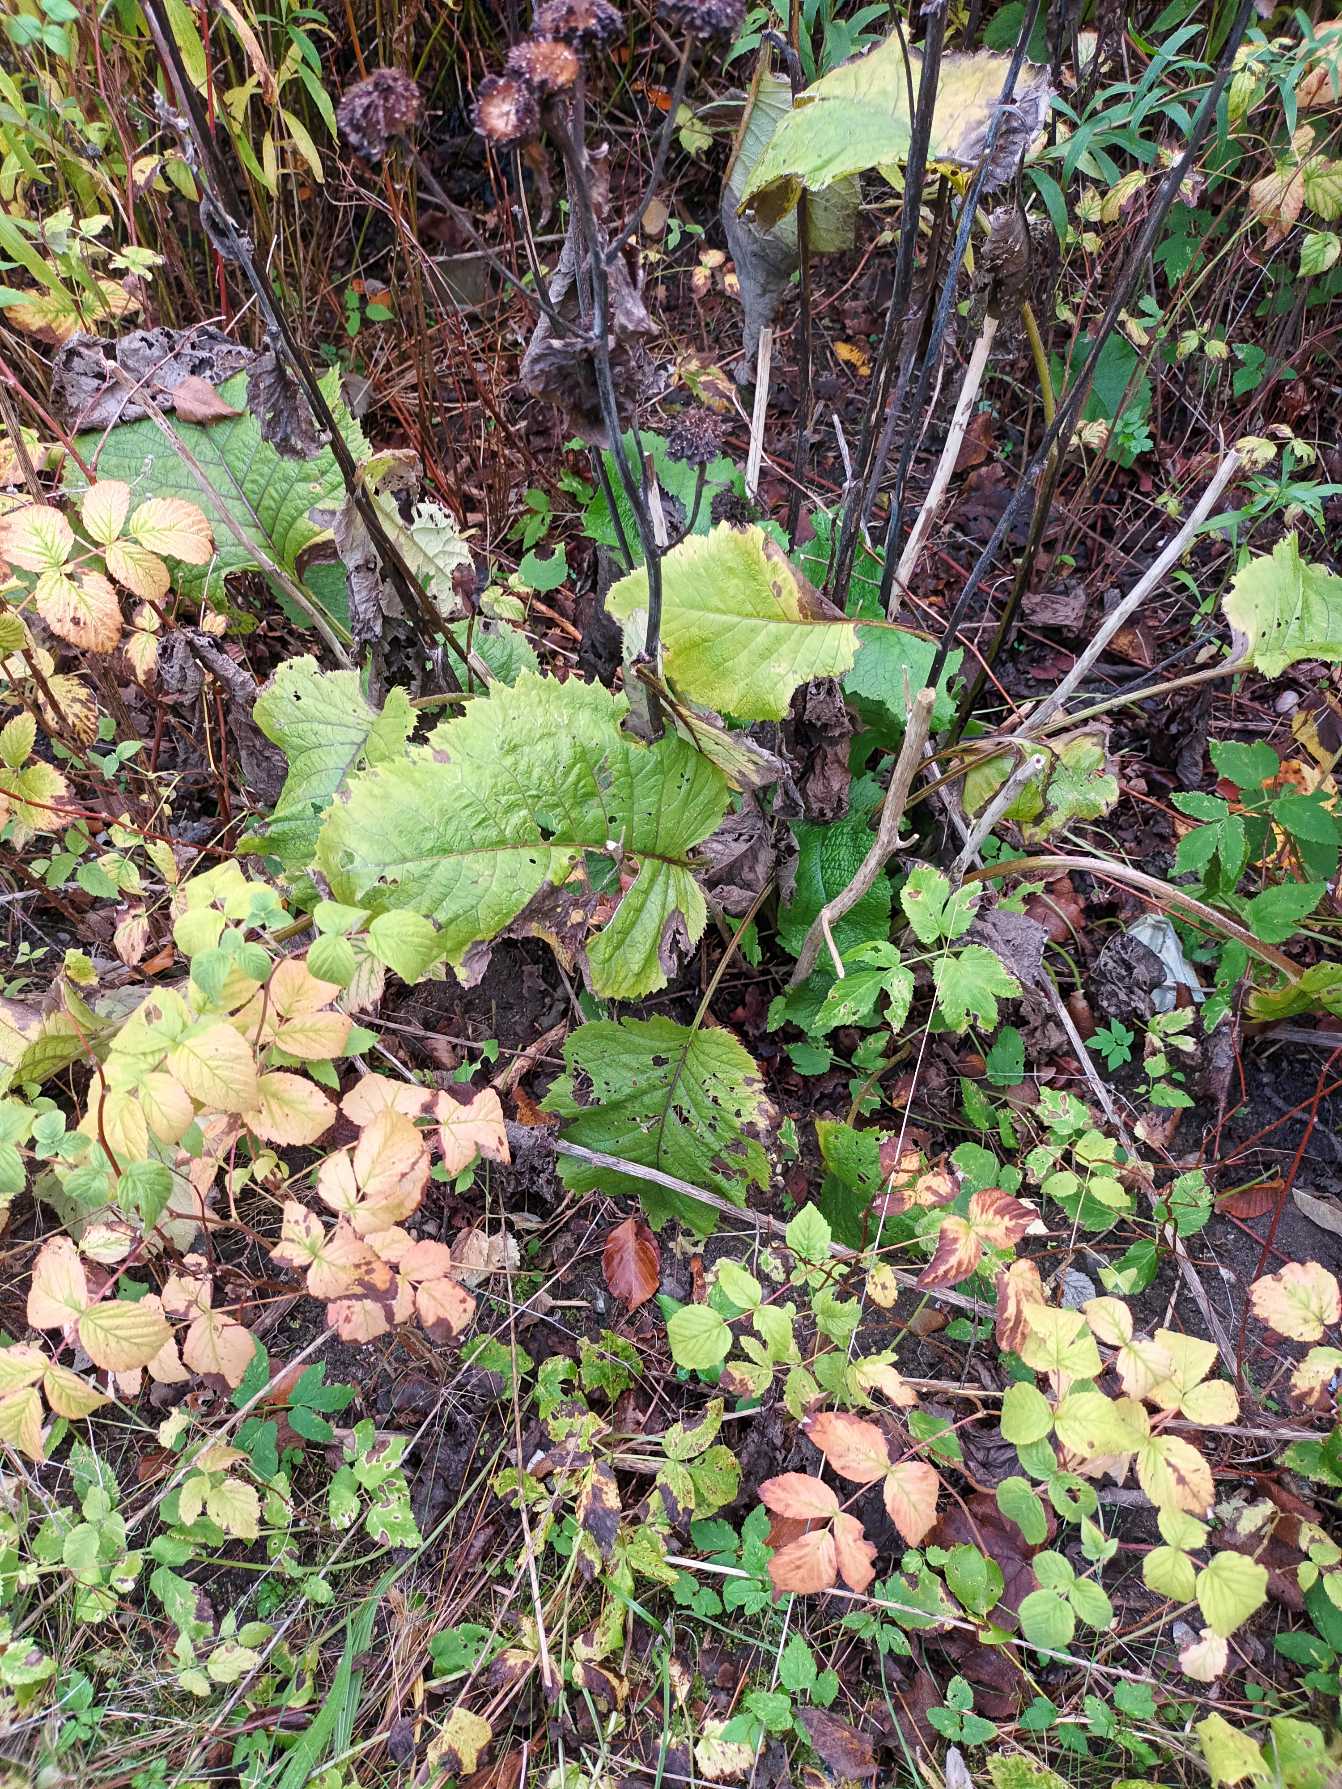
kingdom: Plantae
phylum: Tracheophyta
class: Magnoliopsida
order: Asterales
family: Asteraceae
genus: Telekia
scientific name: Telekia speciosa
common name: Tusindstråle
